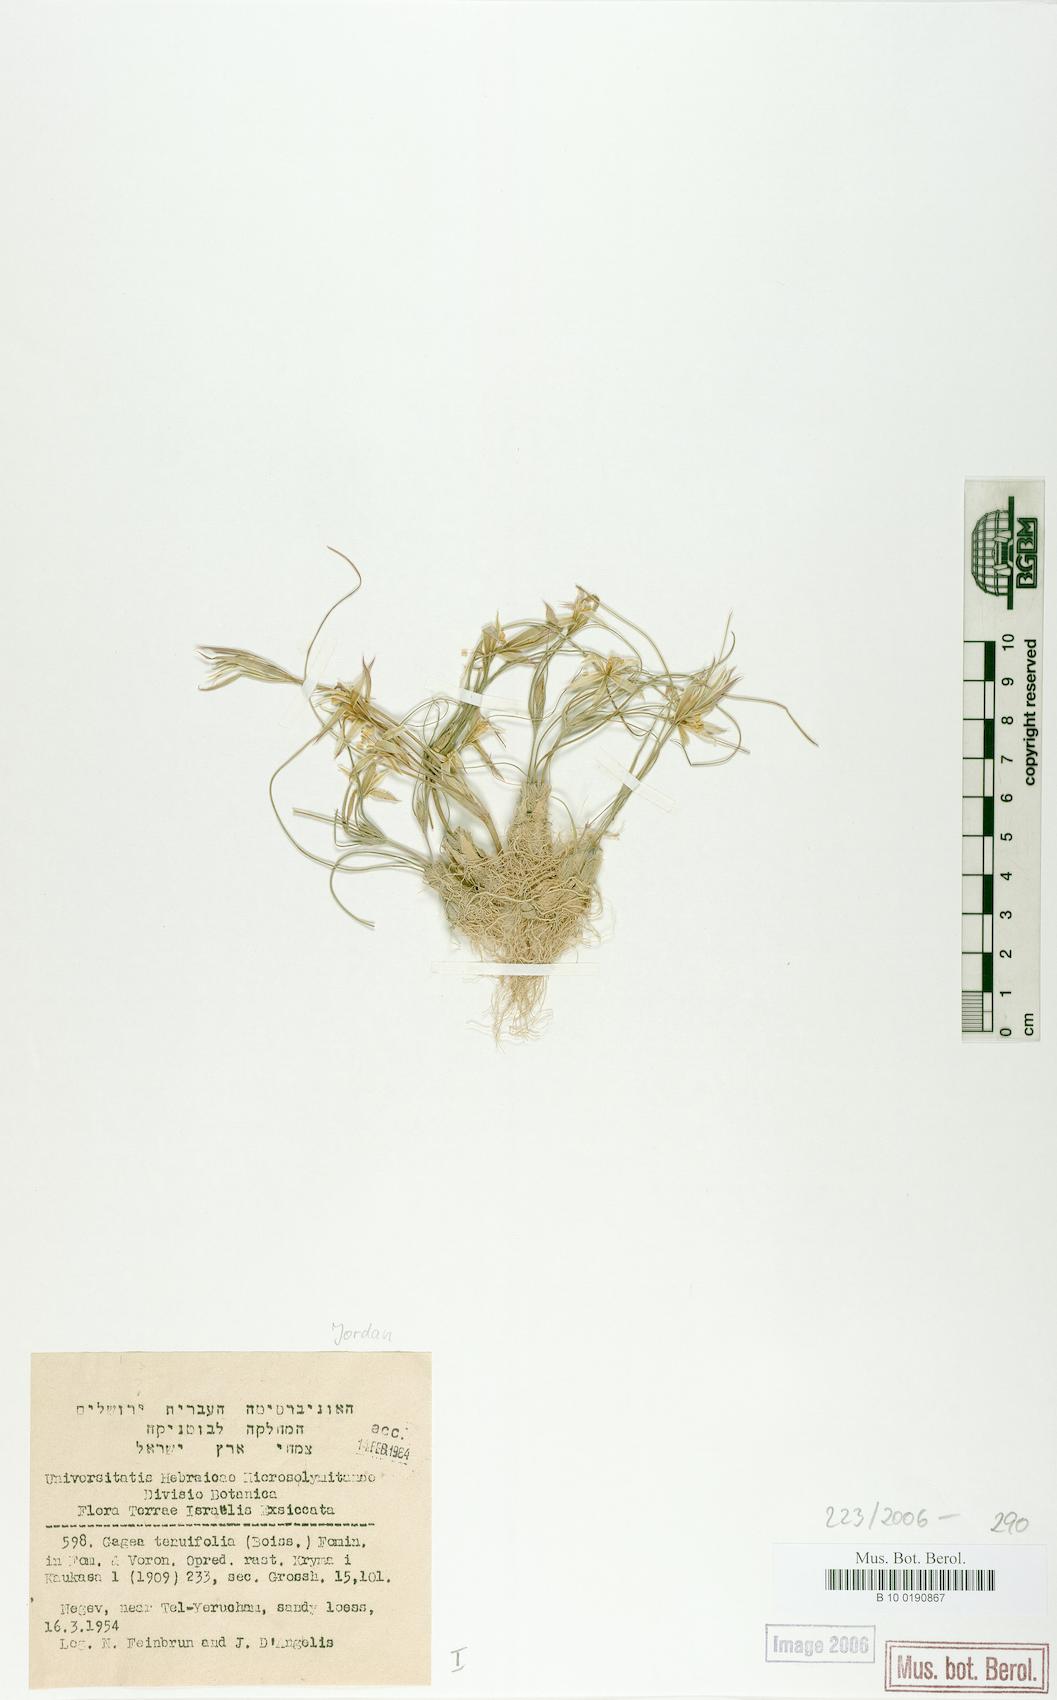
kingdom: Plantae
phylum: Tracheophyta
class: Liliopsida
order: Liliales
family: Liliaceae
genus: Gagea
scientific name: Gagea reticulata
